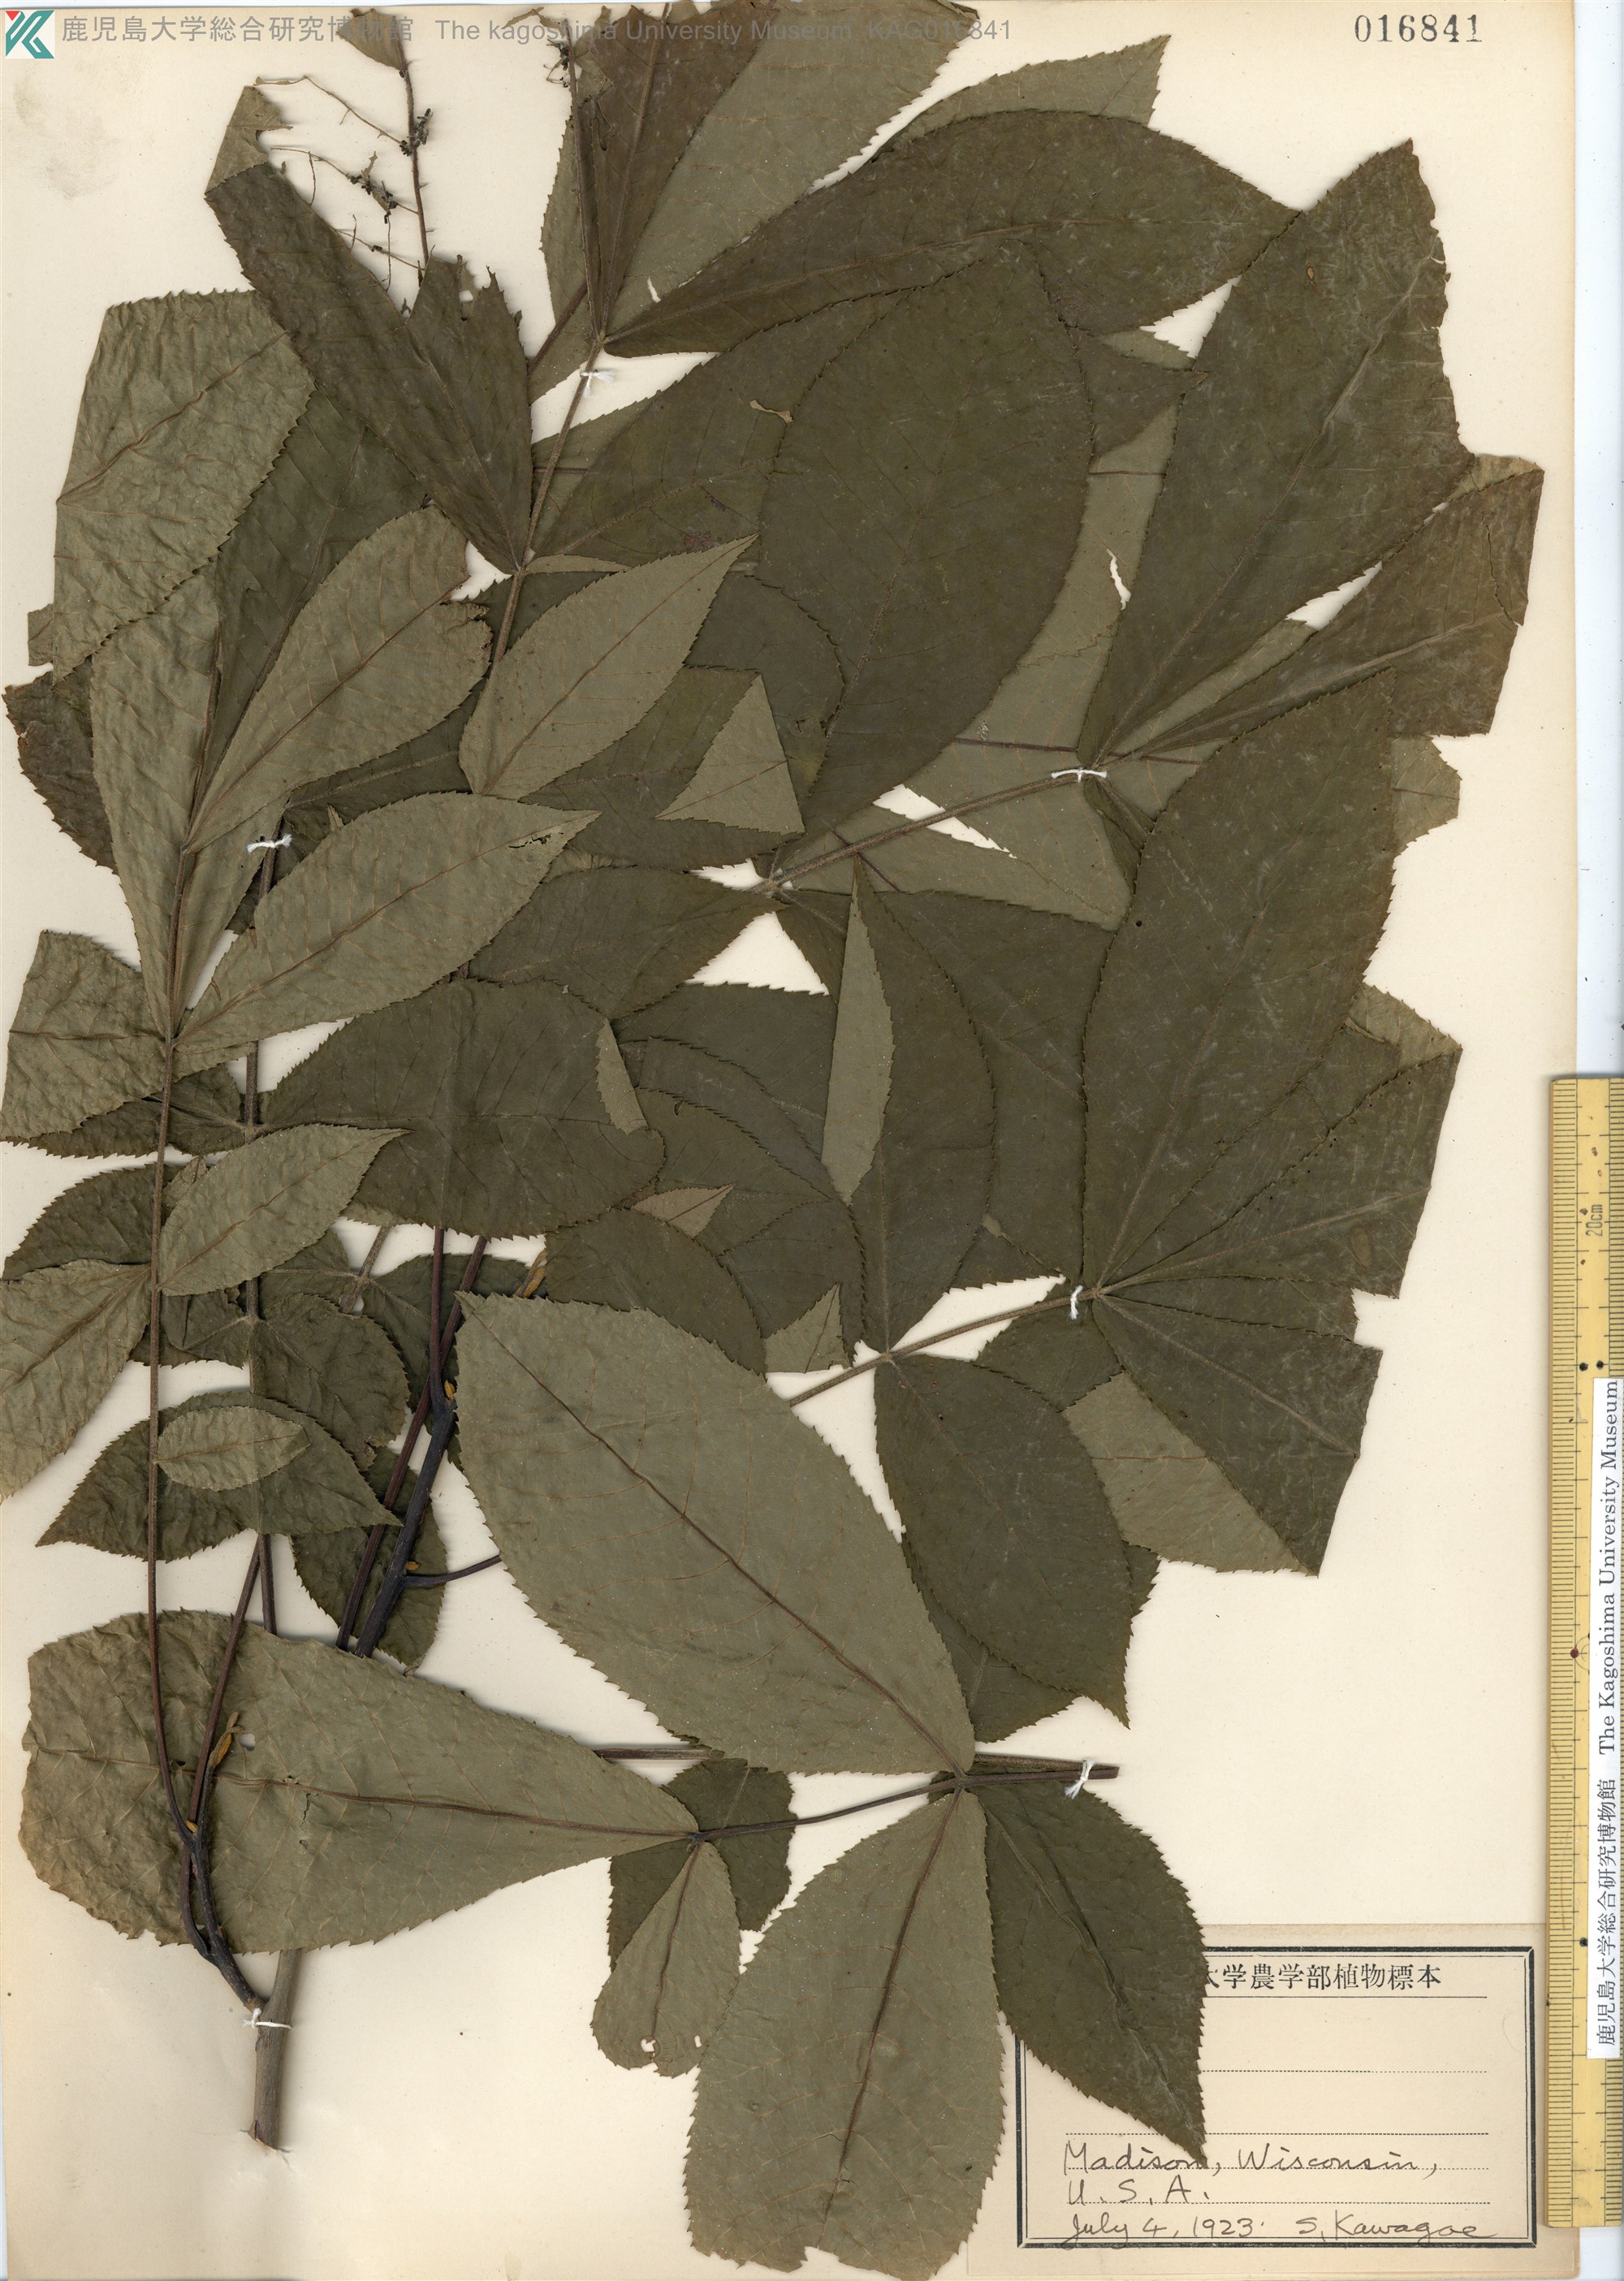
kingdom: Plantae
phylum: Tracheophyta
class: Magnoliopsida
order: Fagales
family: Juglandaceae
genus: Carya
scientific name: Carya texana
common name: Black hickory
